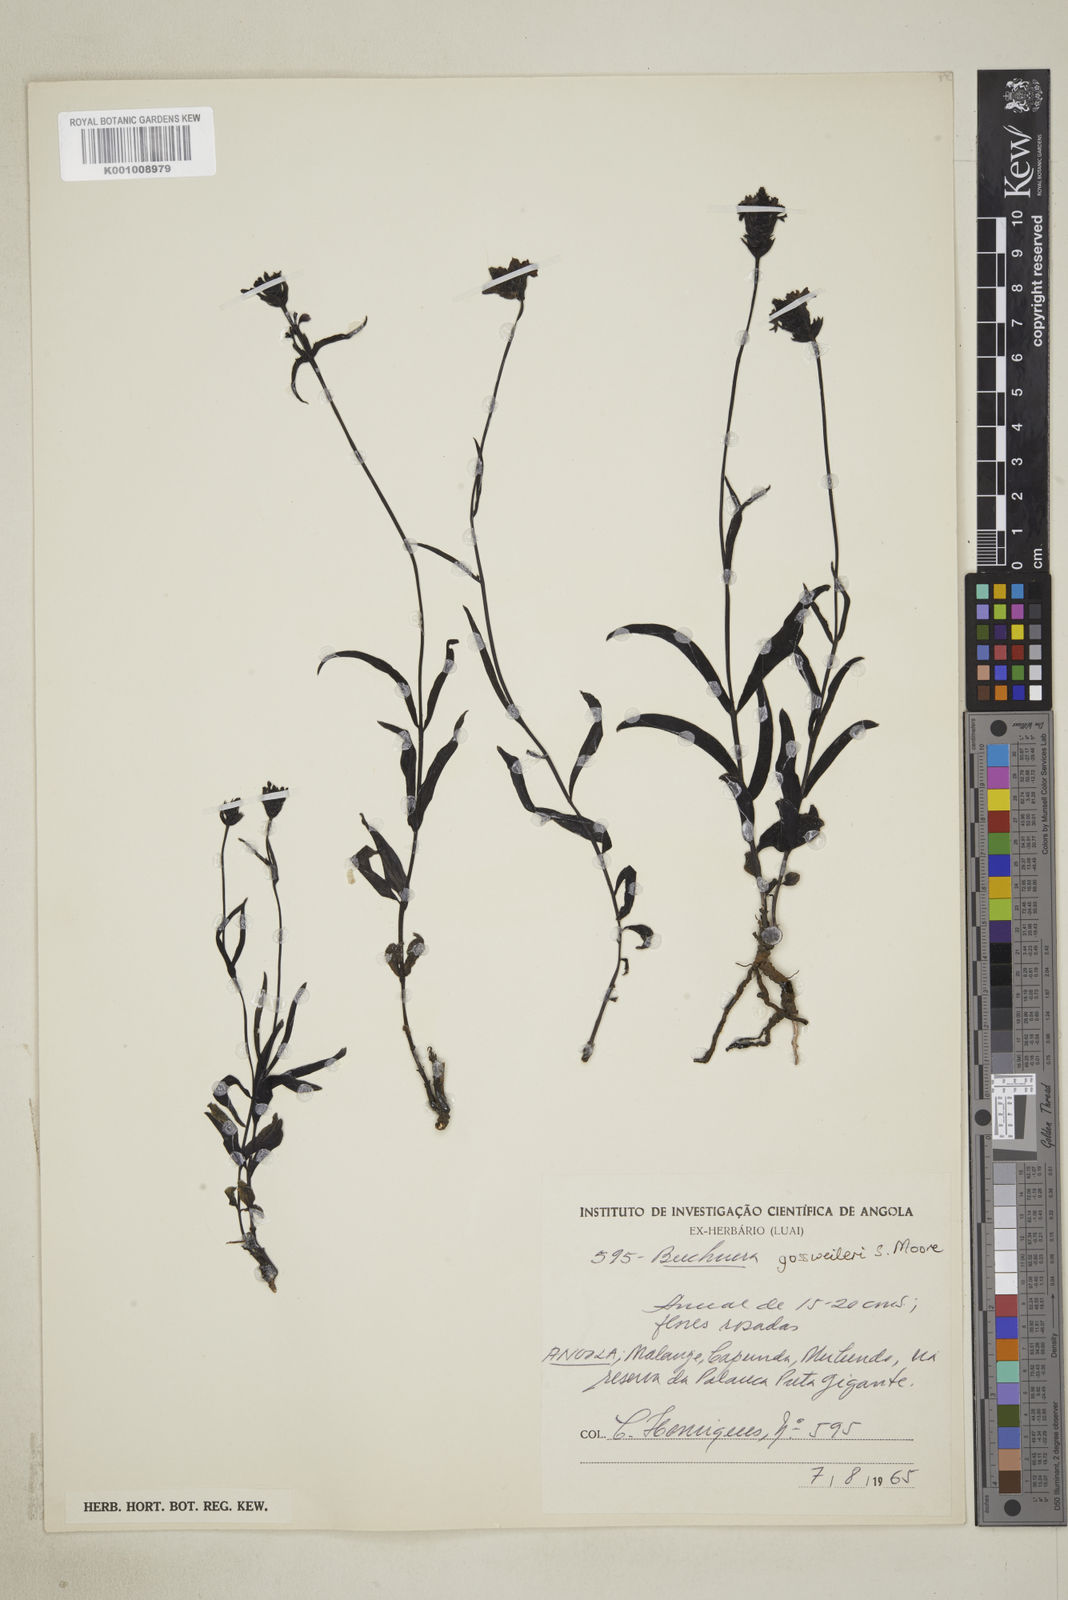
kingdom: Plantae
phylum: Tracheophyta
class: Magnoliopsida
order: Lamiales
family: Orobanchaceae
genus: Buchnera
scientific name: Buchnera gossweileri
